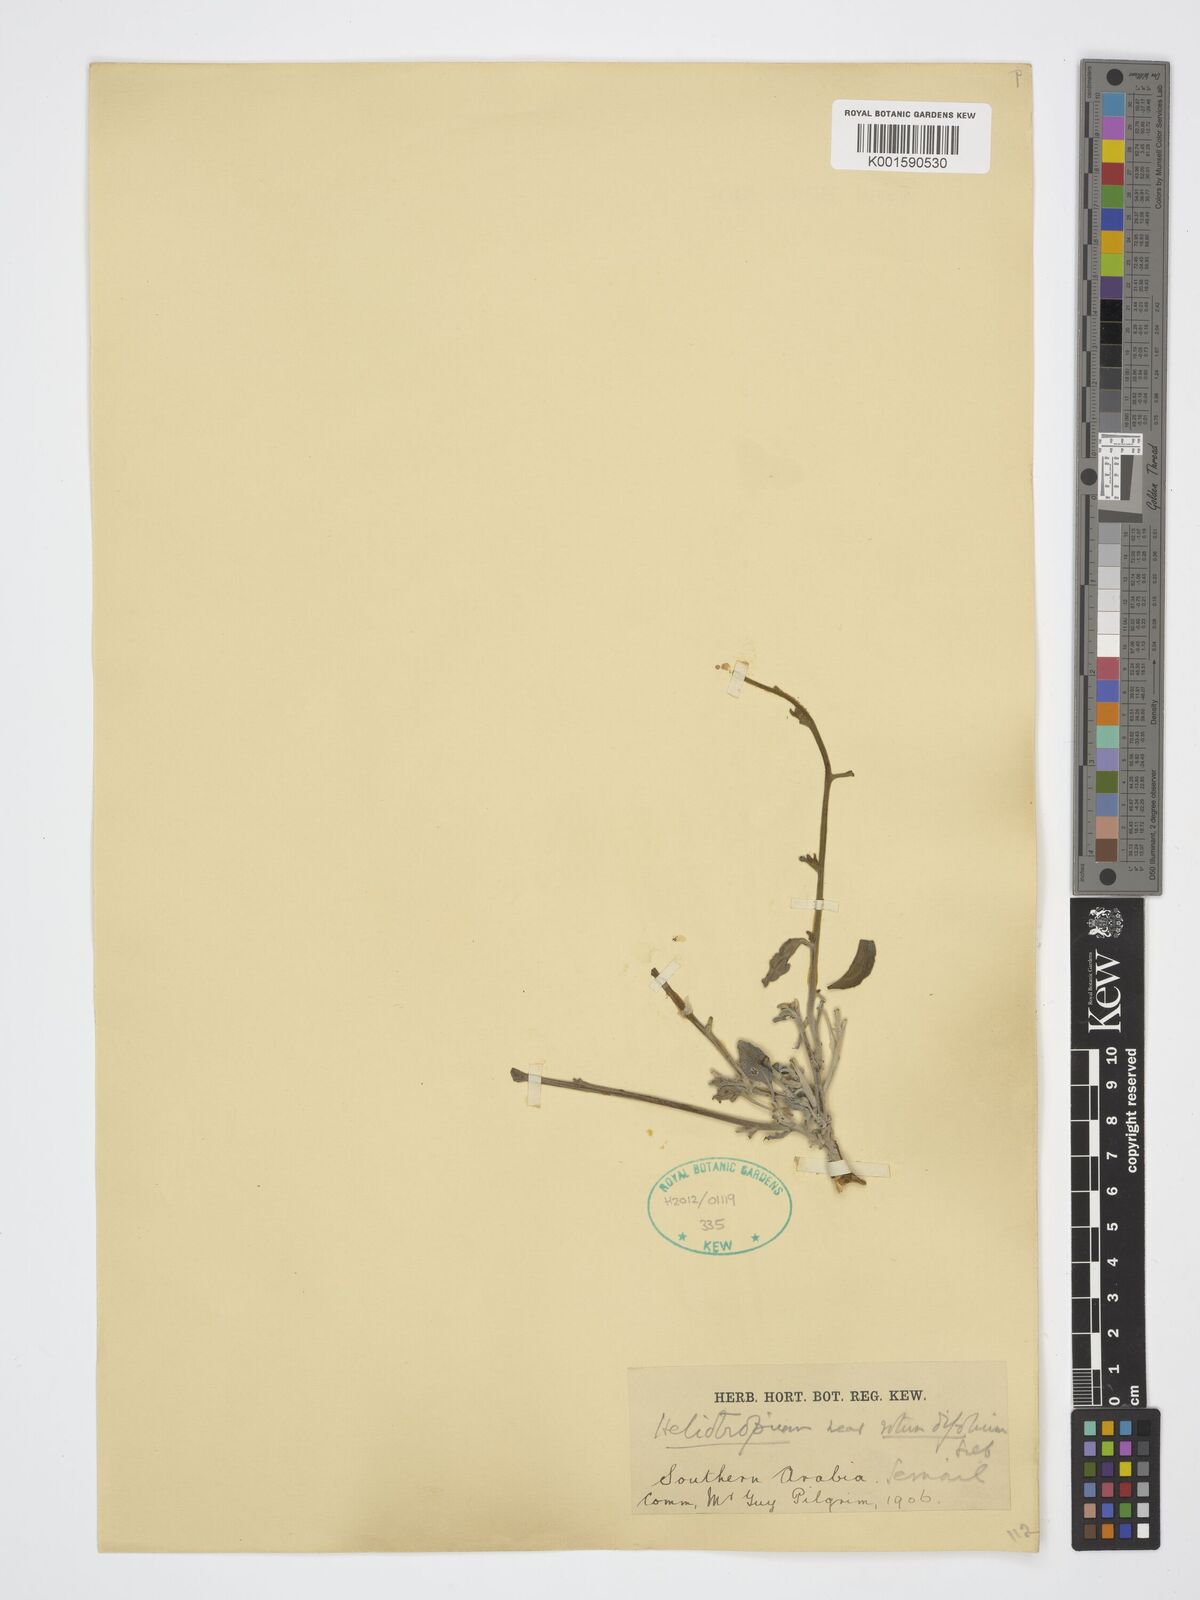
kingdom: Plantae
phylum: Tracheophyta
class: Magnoliopsida
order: Boraginales
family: Heliotropiaceae
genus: Heliotropium
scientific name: Heliotropium rotundifolium
